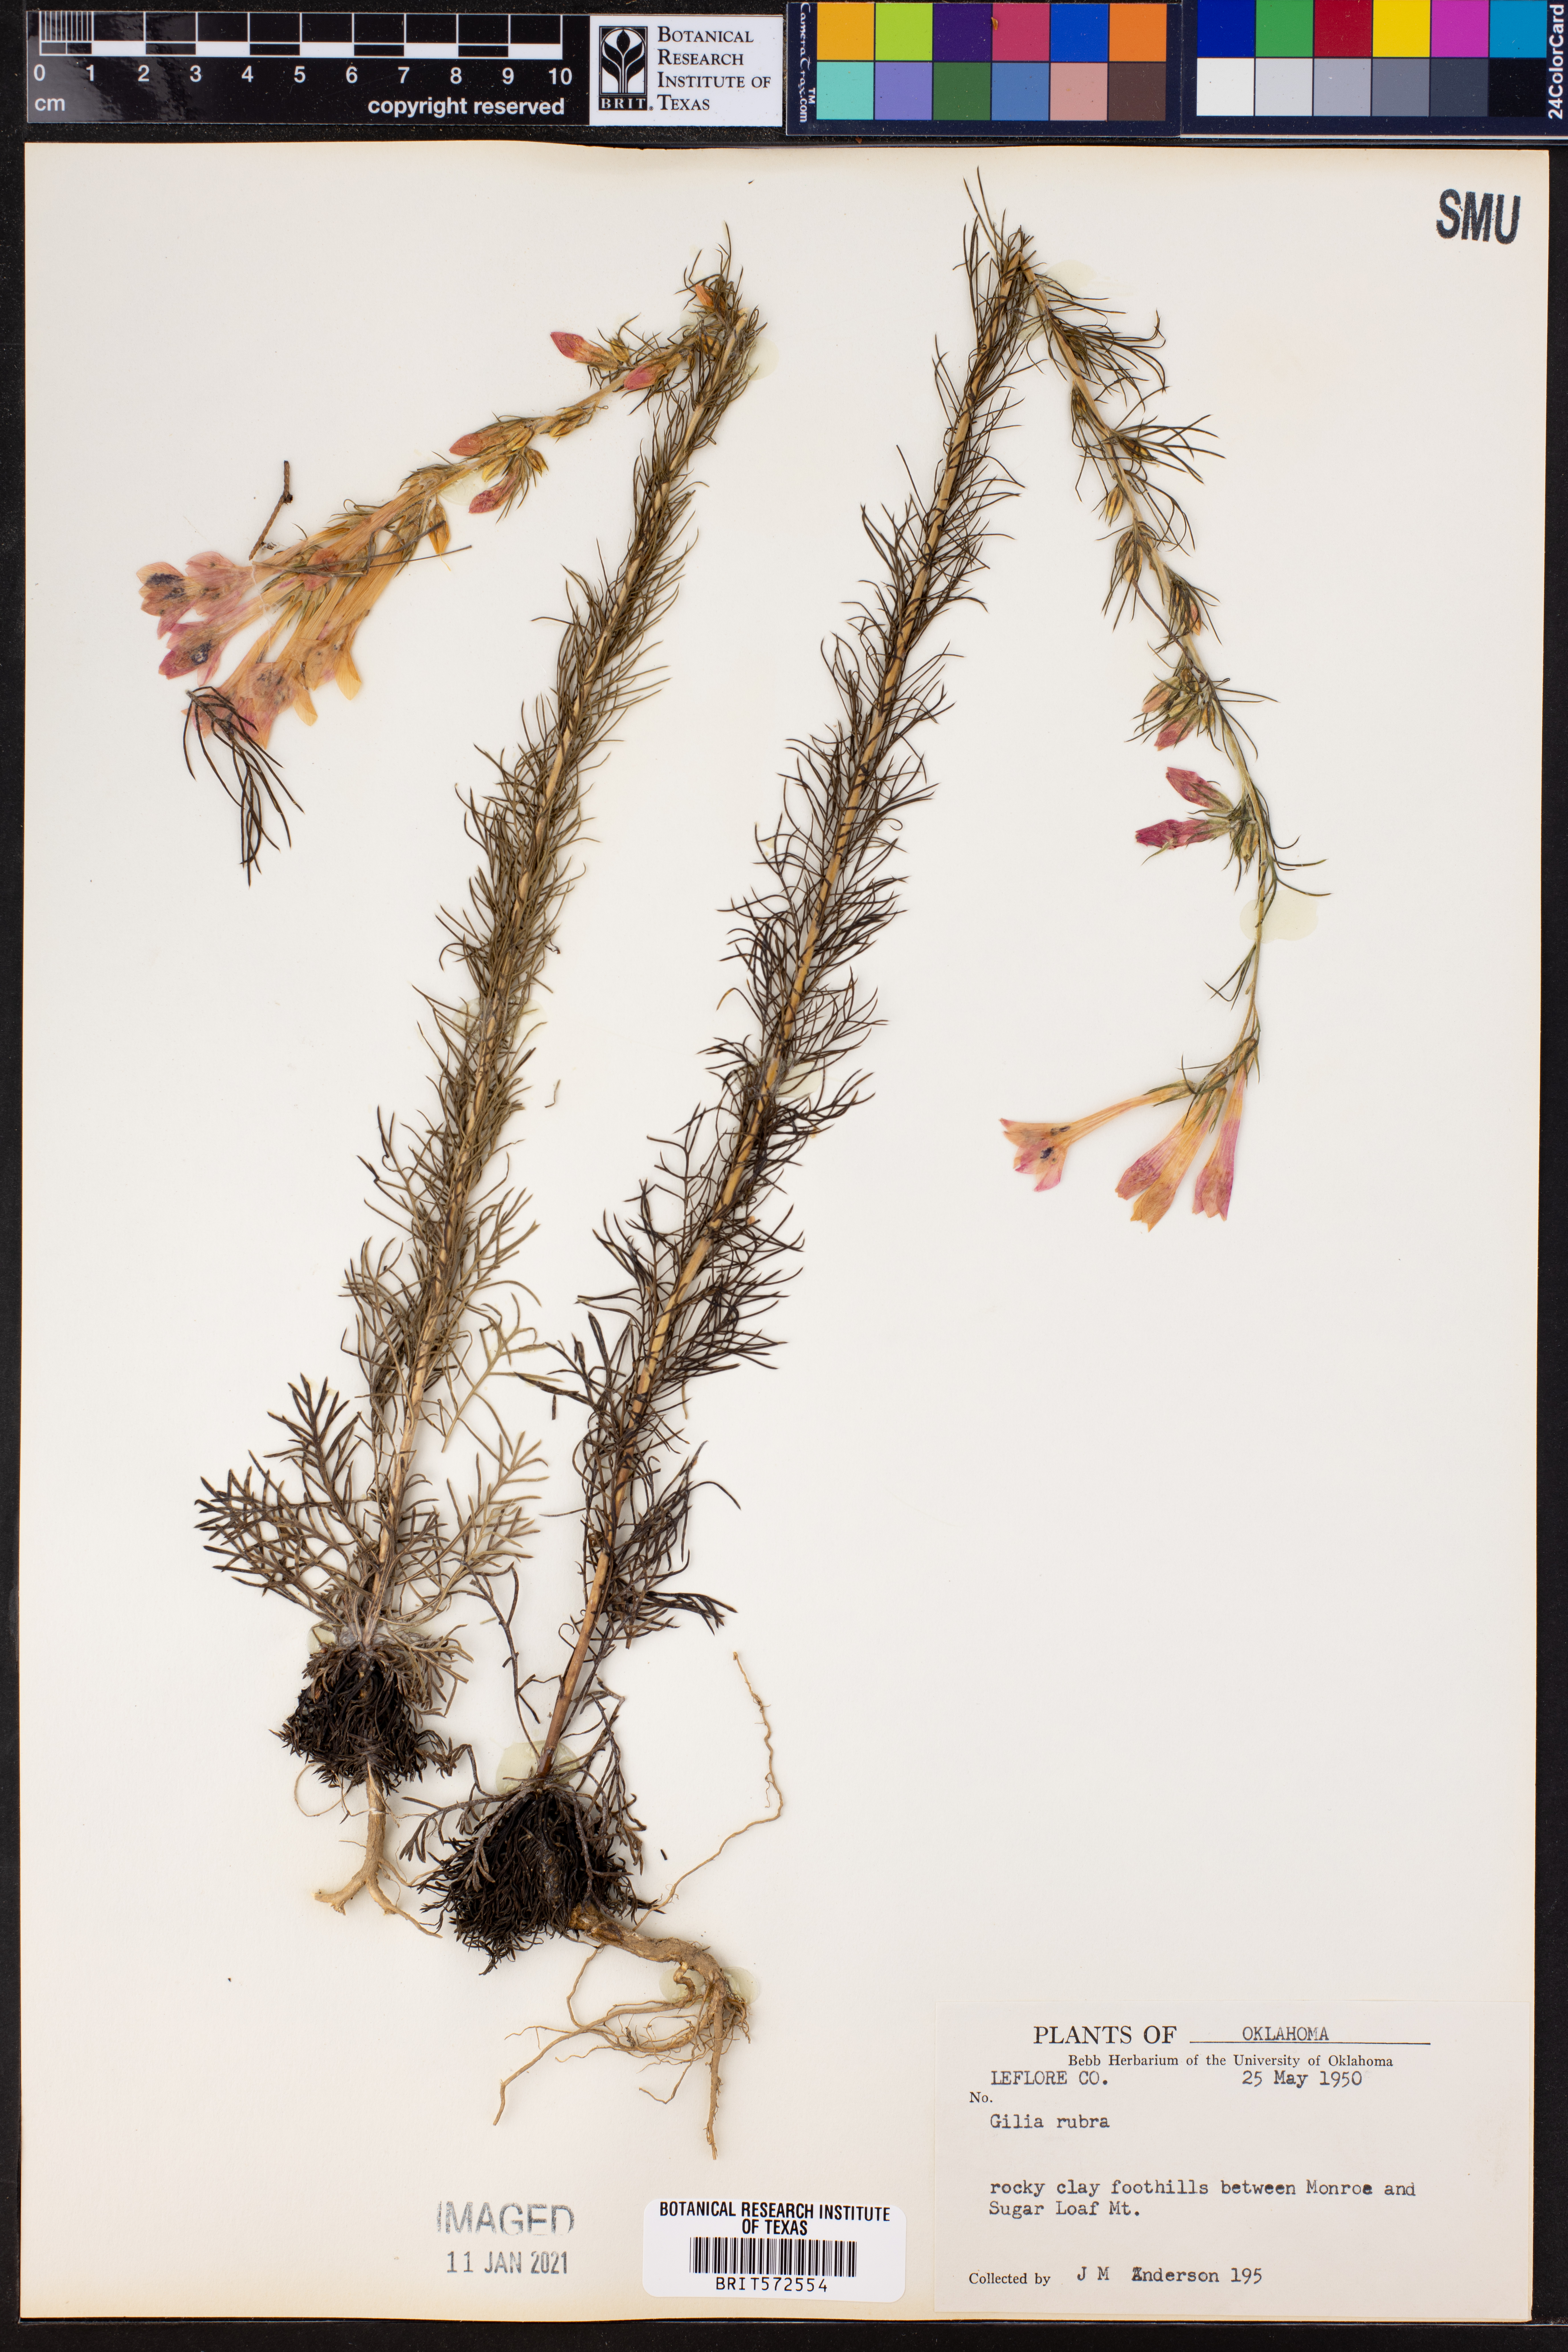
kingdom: Plantae
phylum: Tracheophyta
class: Magnoliopsida
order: Ericales
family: Polemoniaceae
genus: Ipomopsis
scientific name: Ipomopsis rubra
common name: Skyrocket
